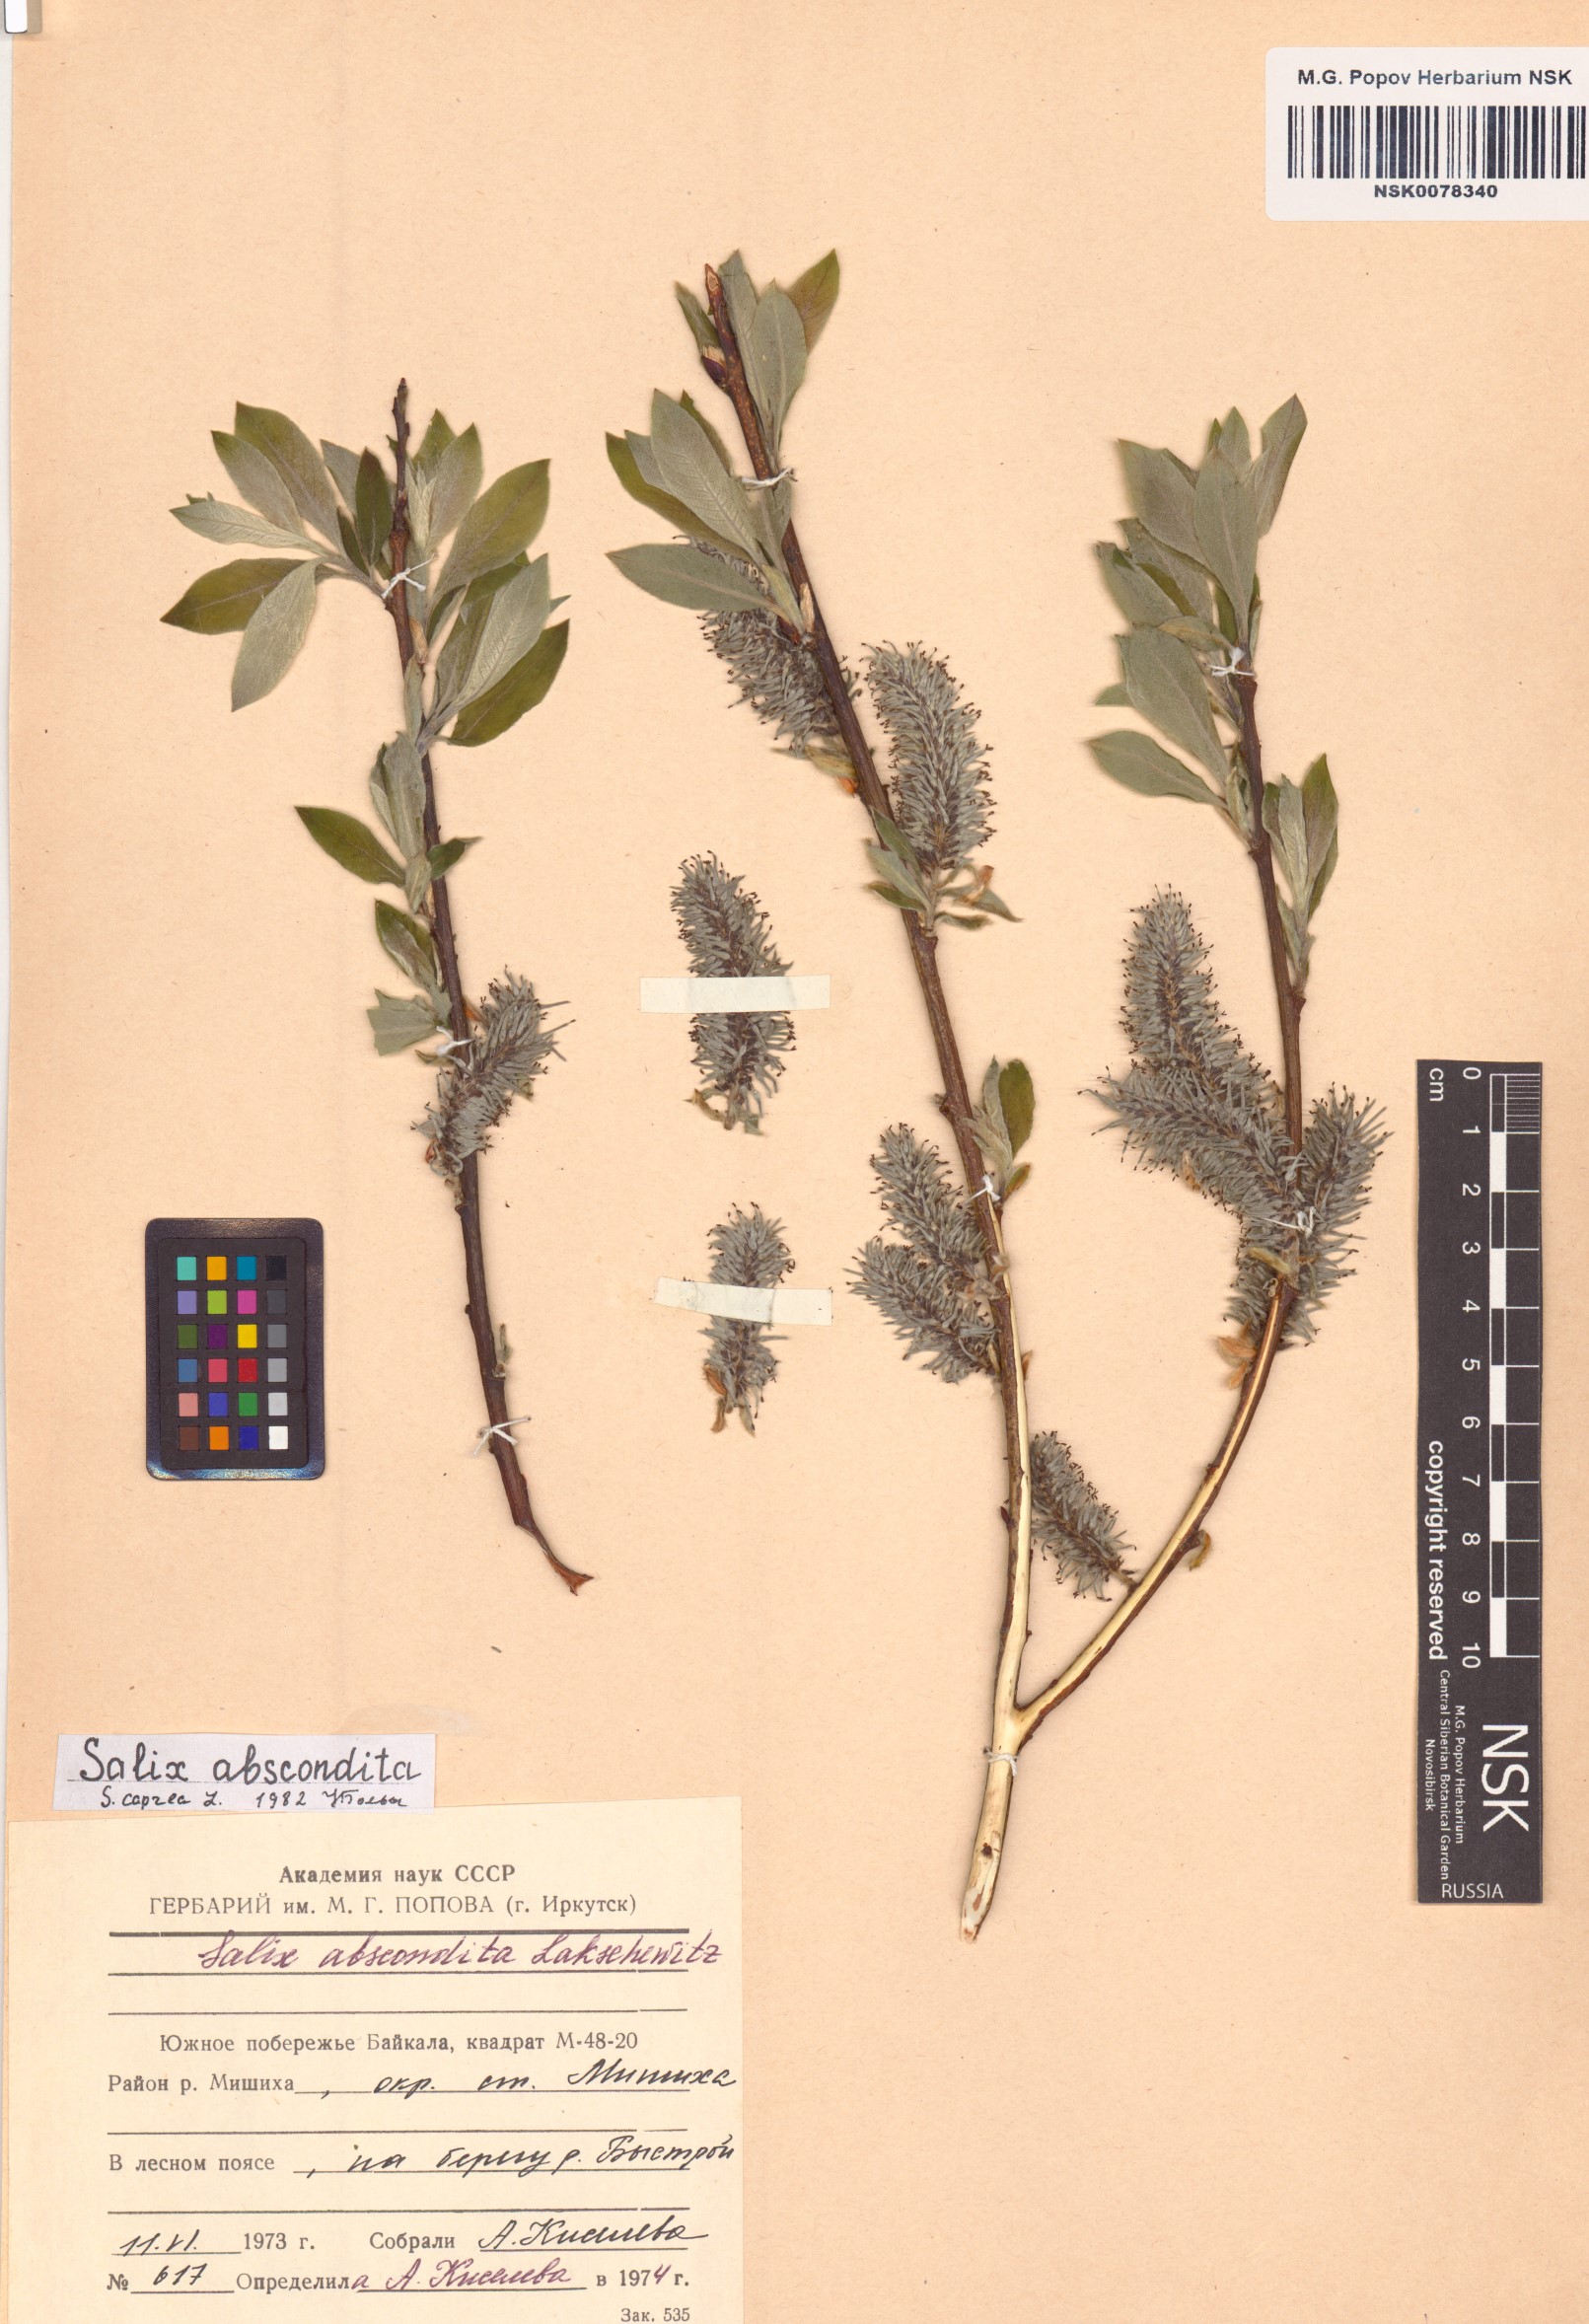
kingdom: Plantae
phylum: Tracheophyta
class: Magnoliopsida
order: Malpighiales
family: Salicaceae
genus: Salix
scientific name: Salix caprea
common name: Goat willow
